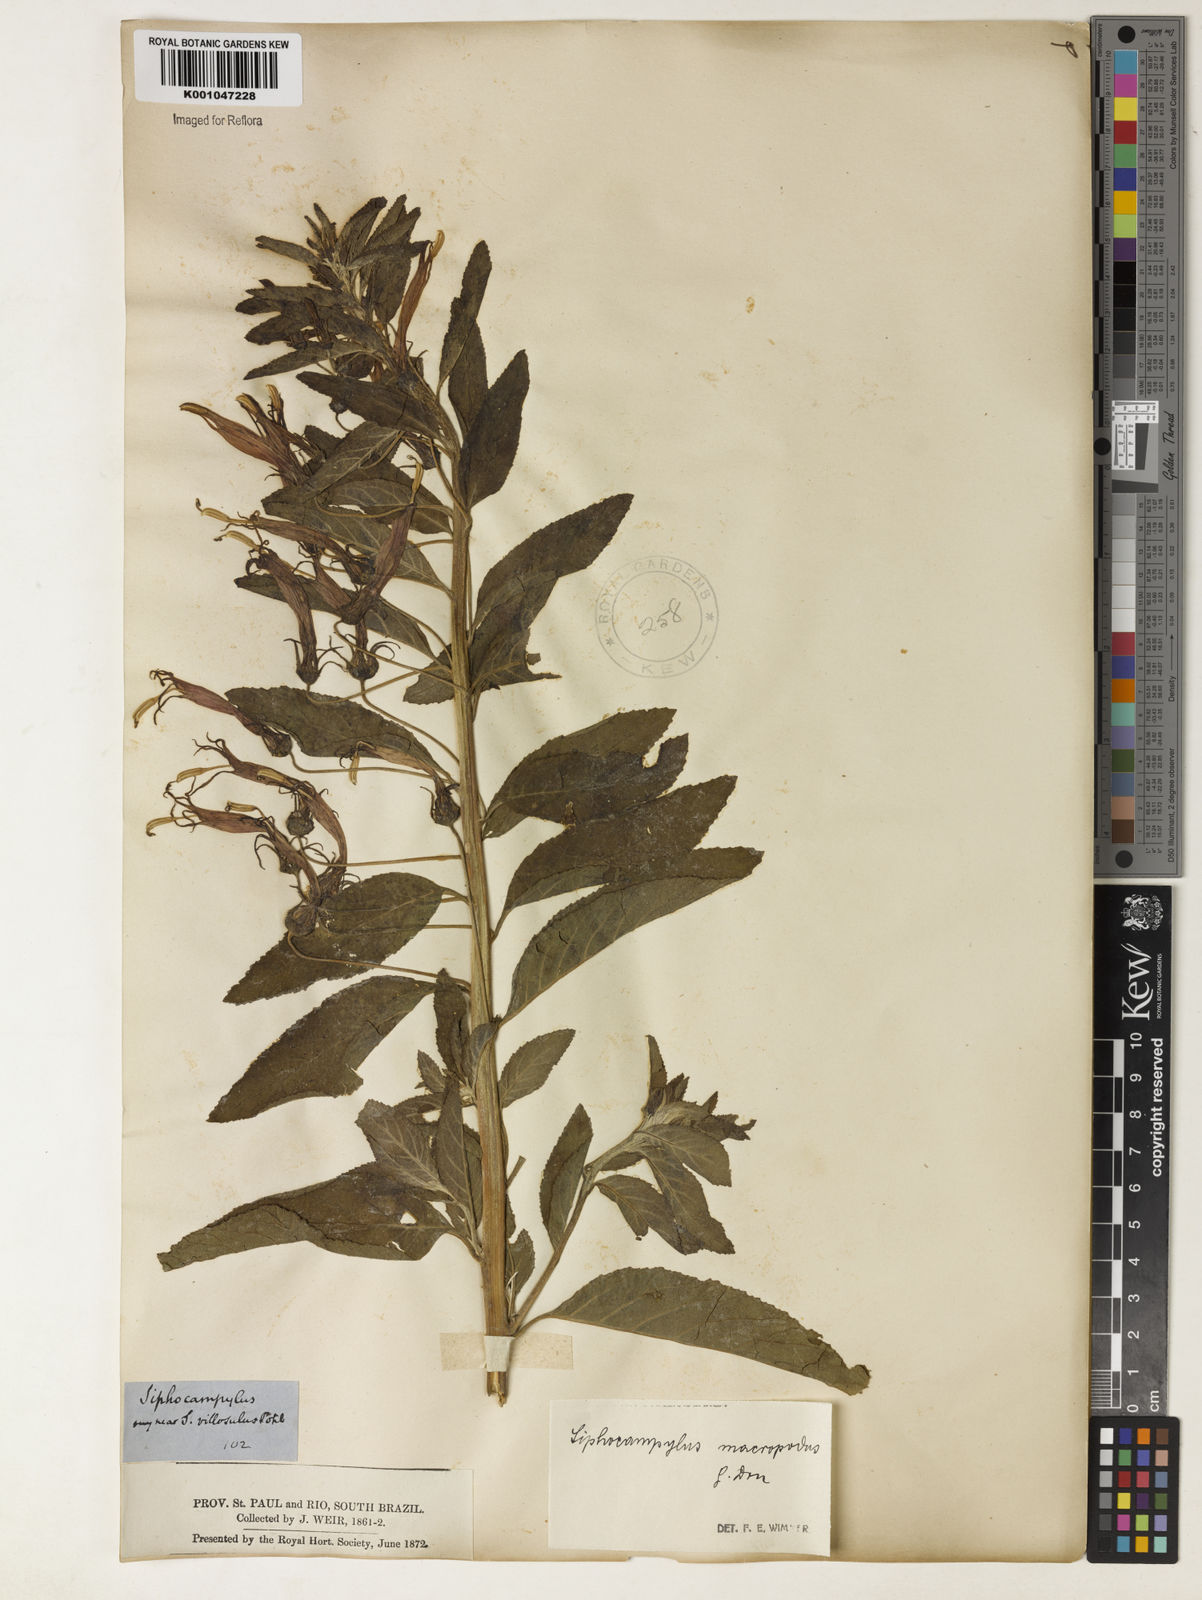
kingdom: Plantae
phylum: Tracheophyta
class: Magnoliopsida
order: Asterales
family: Campanulaceae
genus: Siphocampylus
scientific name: Siphocampylus macropodus
